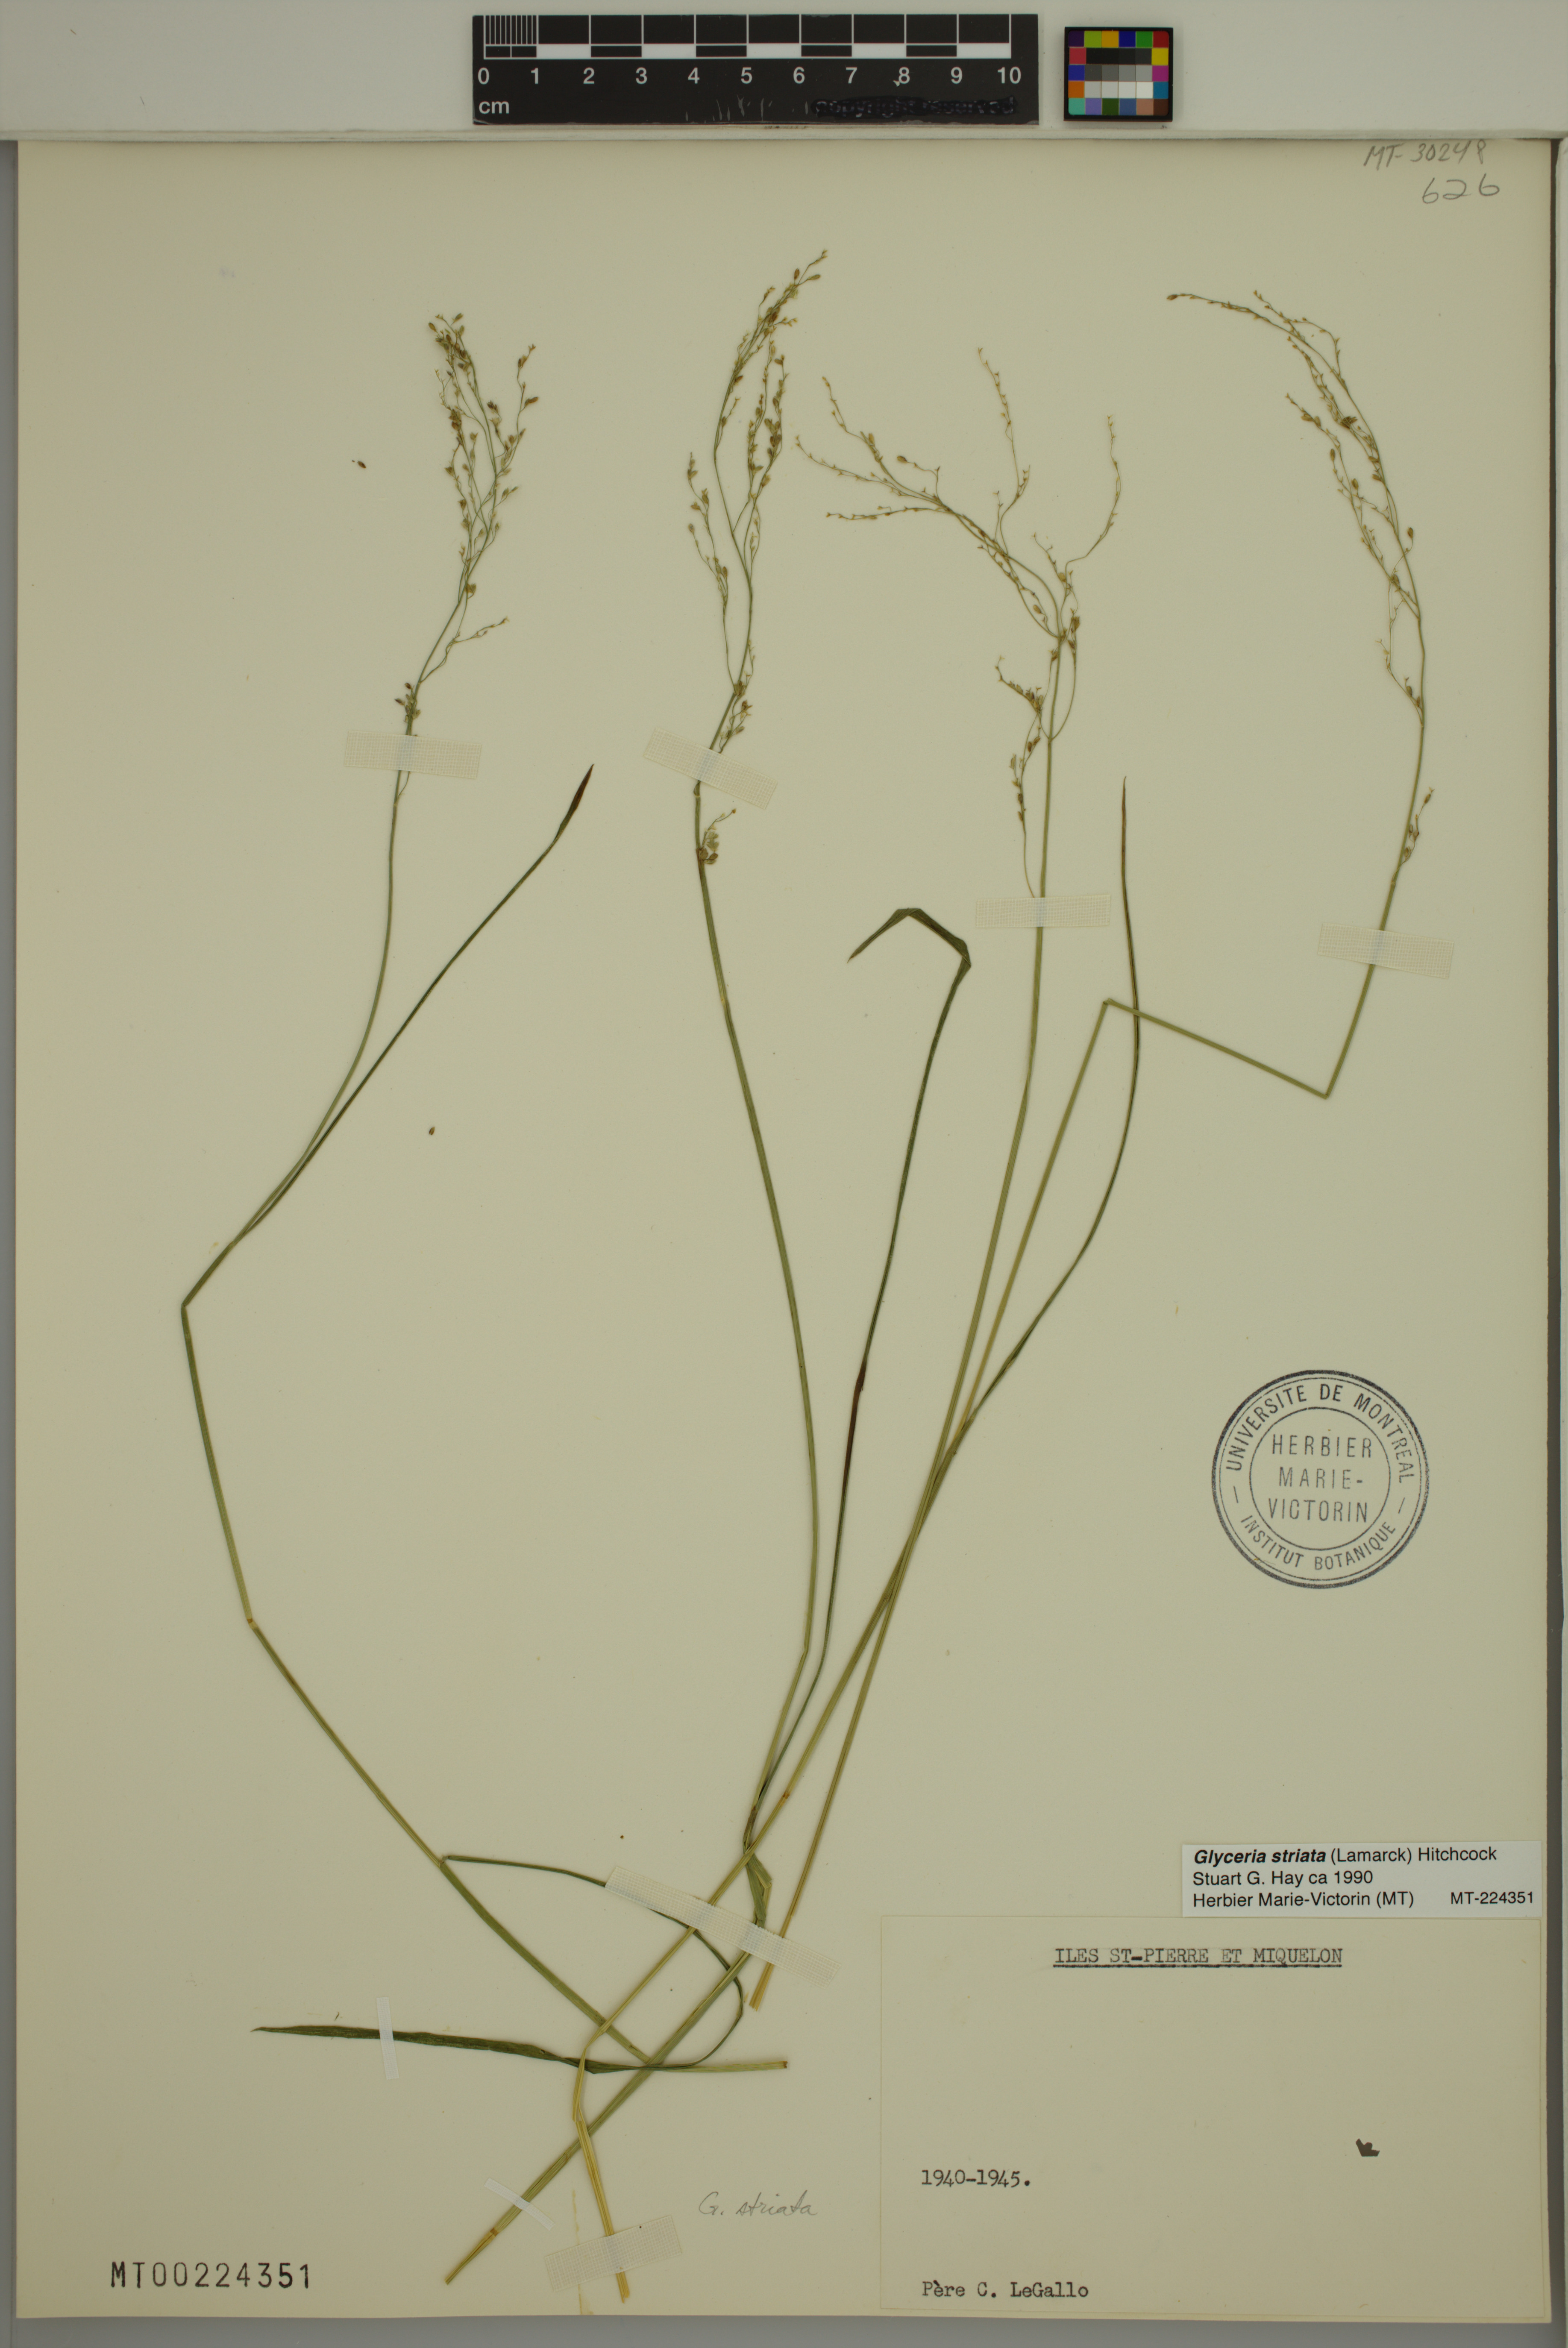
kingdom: Plantae
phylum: Tracheophyta
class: Liliopsida
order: Poales
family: Poaceae
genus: Glyceria
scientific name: Glyceria striata
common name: Fowl manna grass
